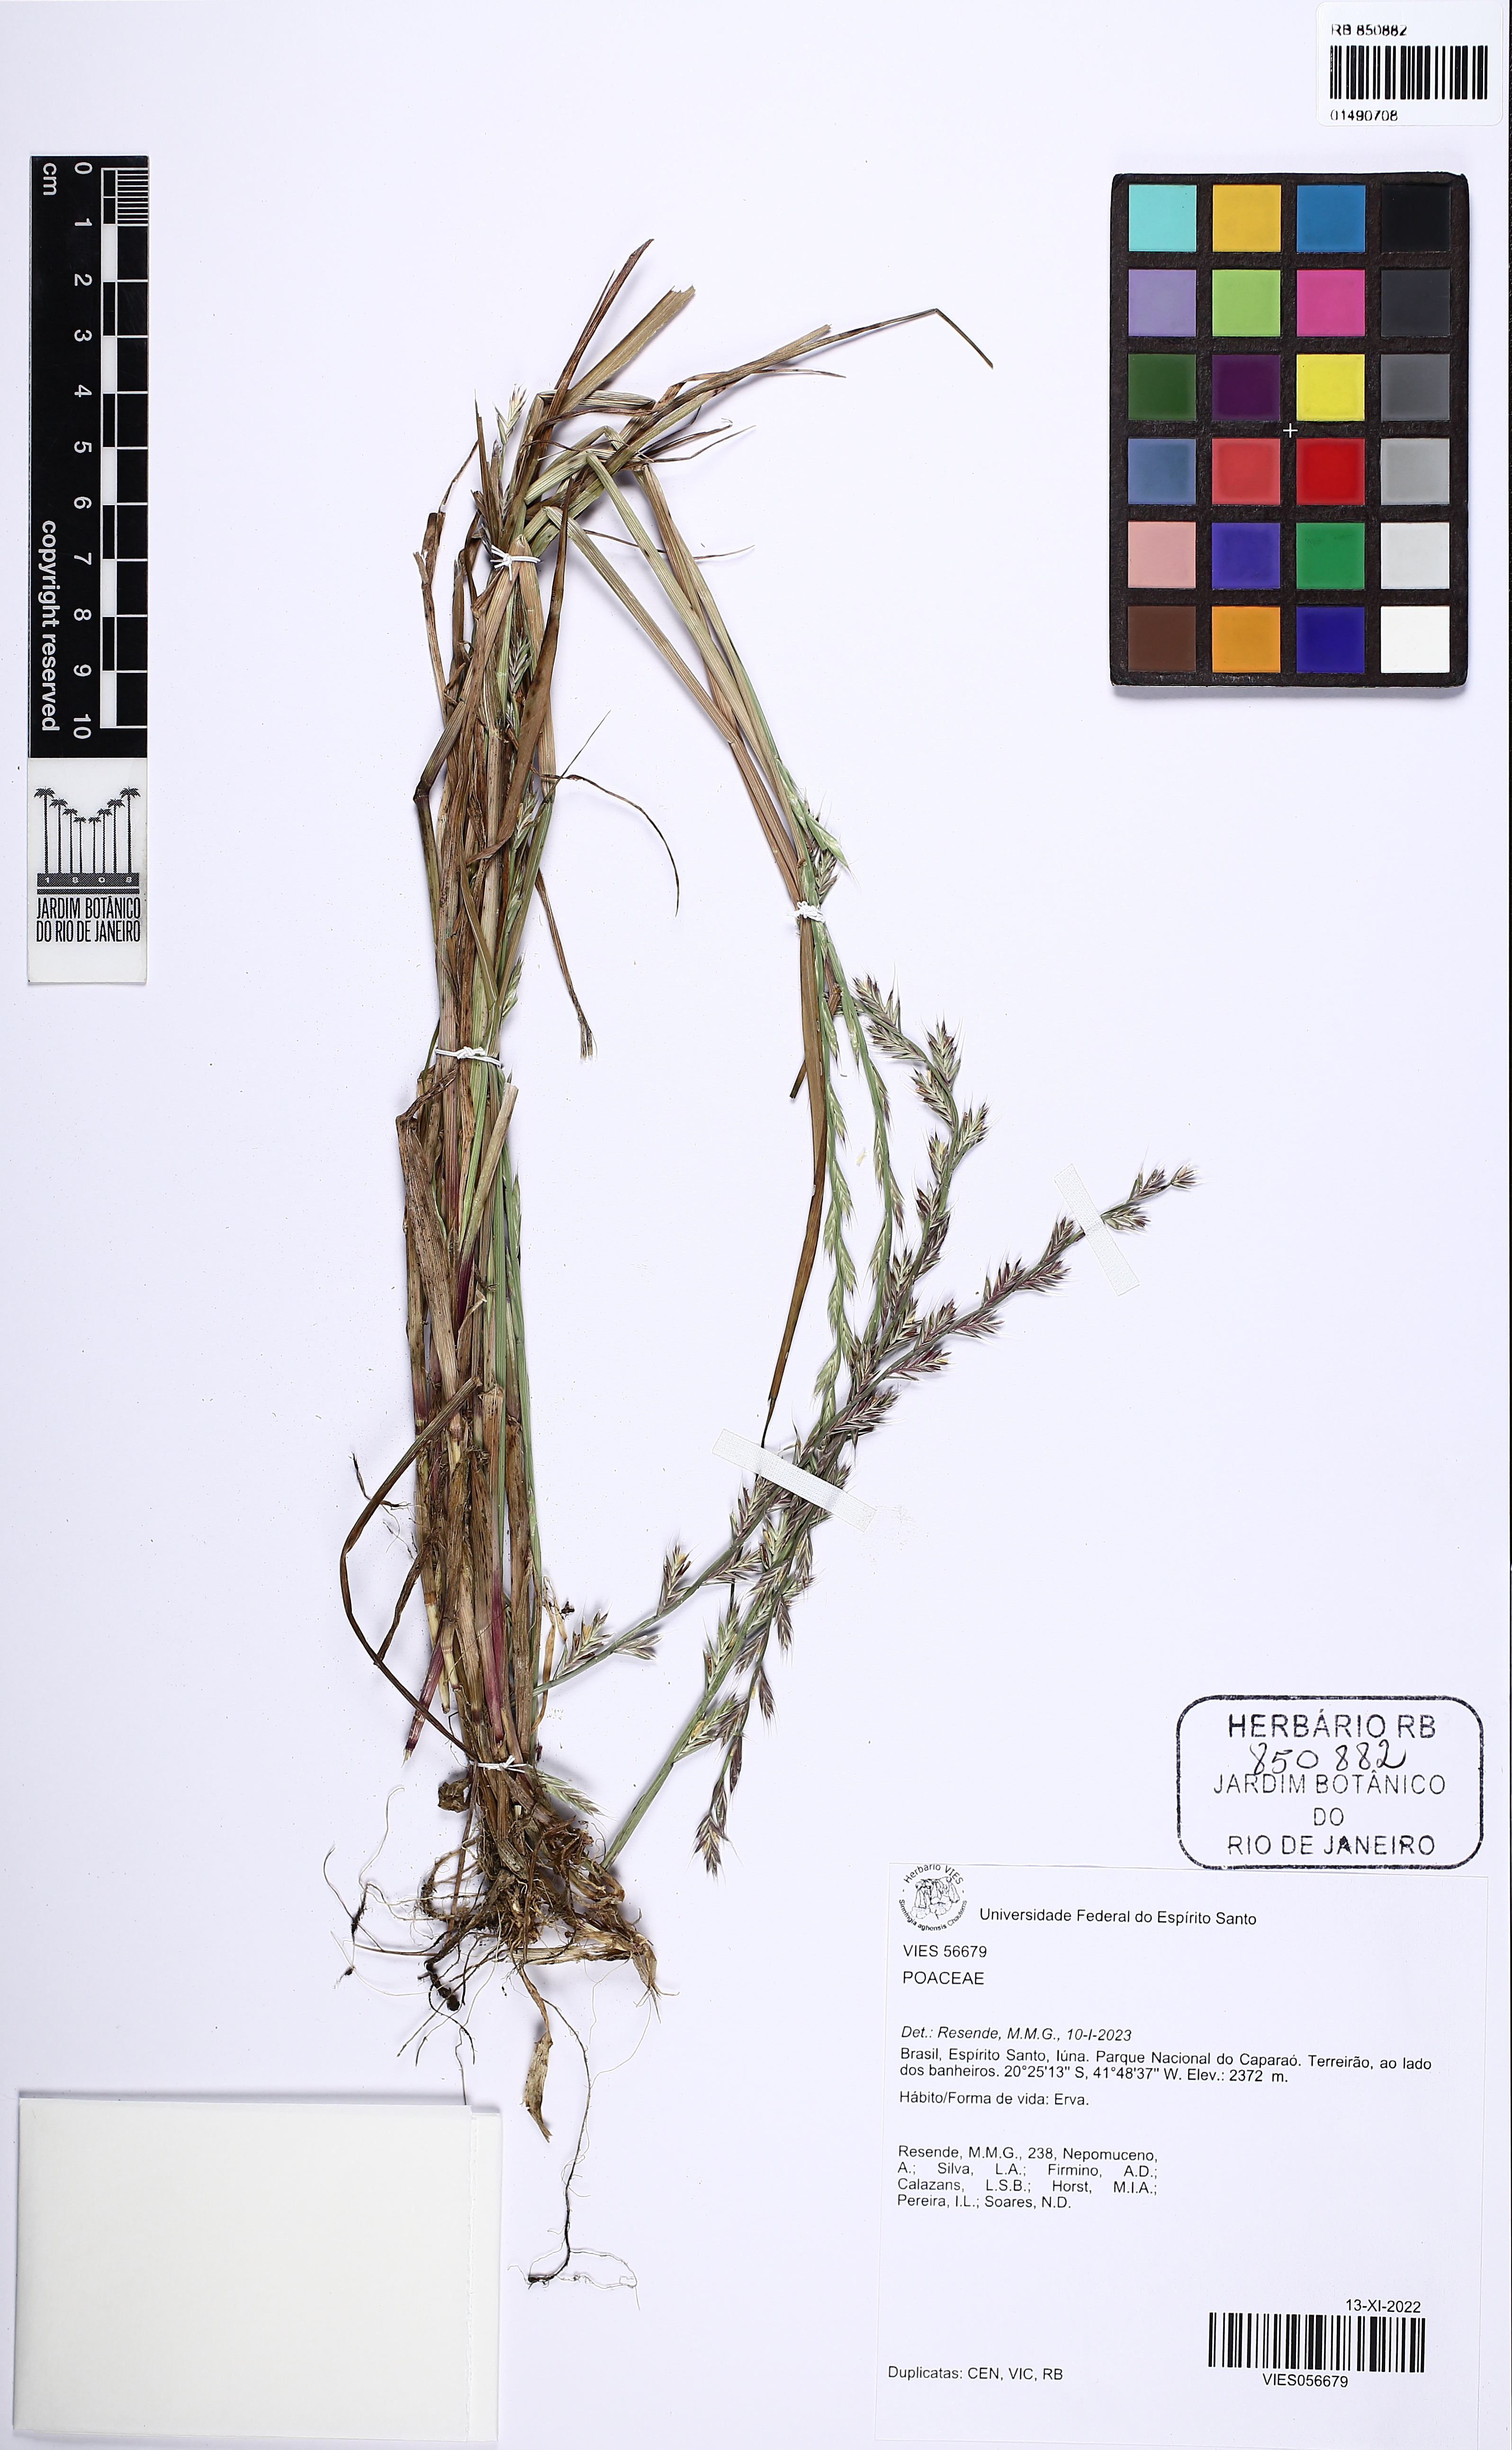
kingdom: Plantae
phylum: Tracheophyta
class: Liliopsida
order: Poales
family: Poaceae
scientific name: Poaceae
